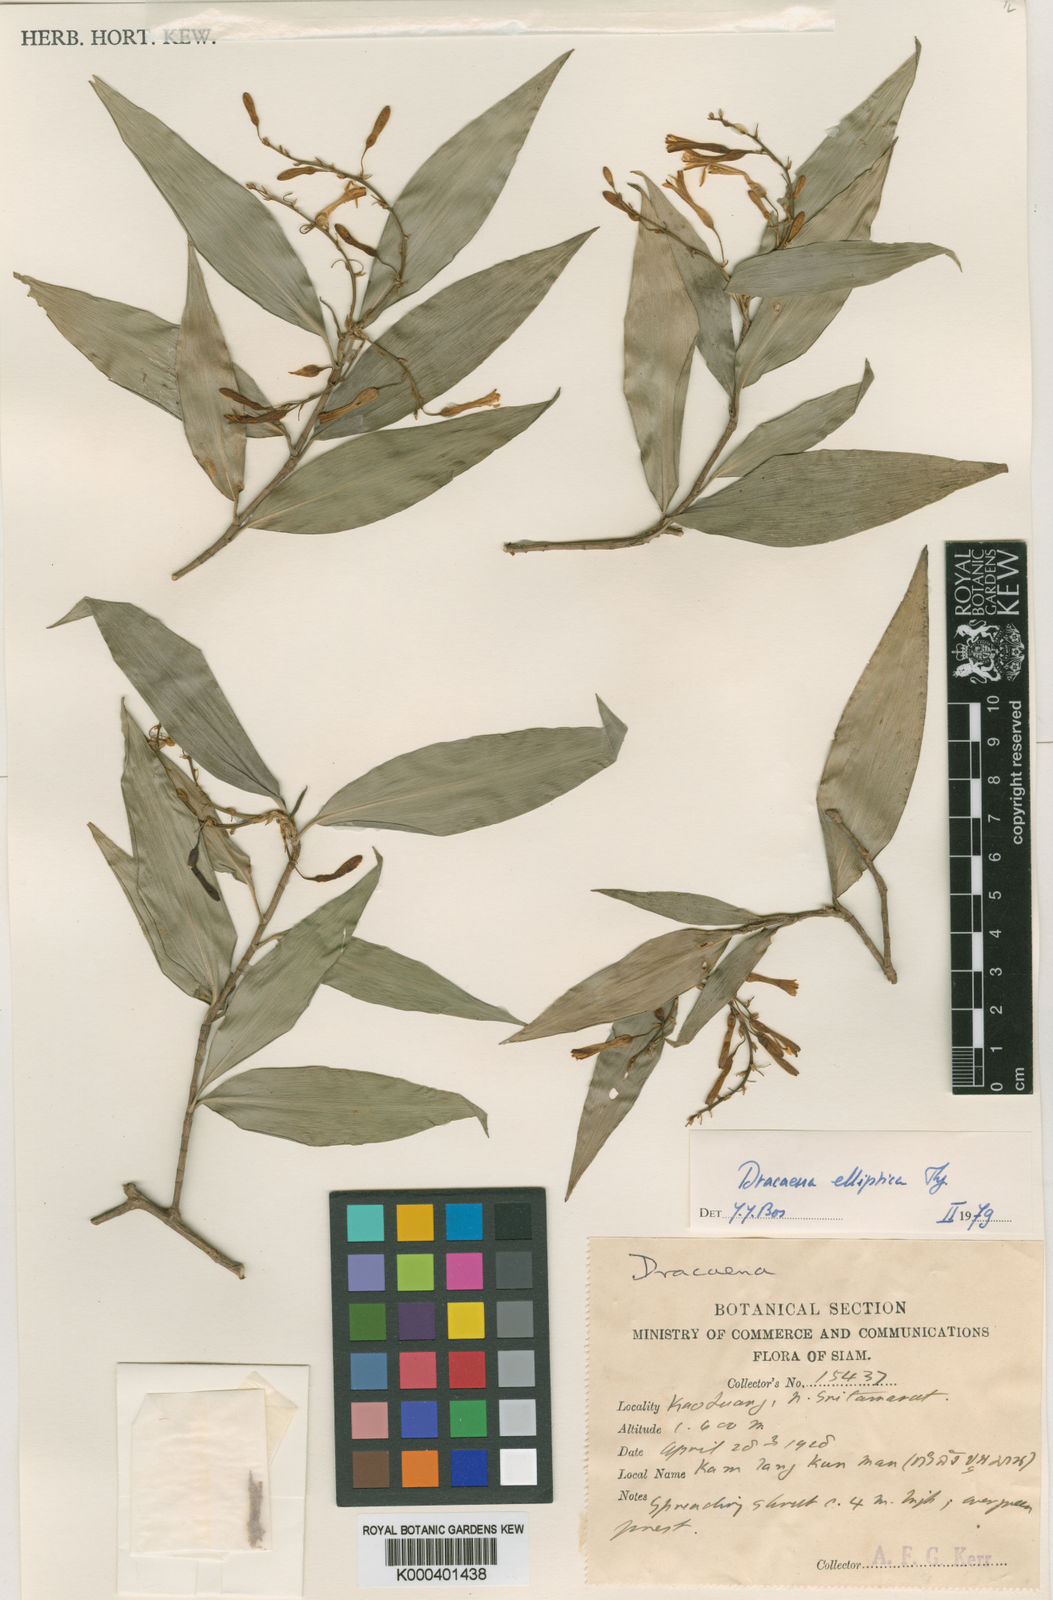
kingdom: Plantae
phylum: Tracheophyta
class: Liliopsida
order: Asparagales
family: Asparagaceae
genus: Dracaena
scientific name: Dracaena elliptica
